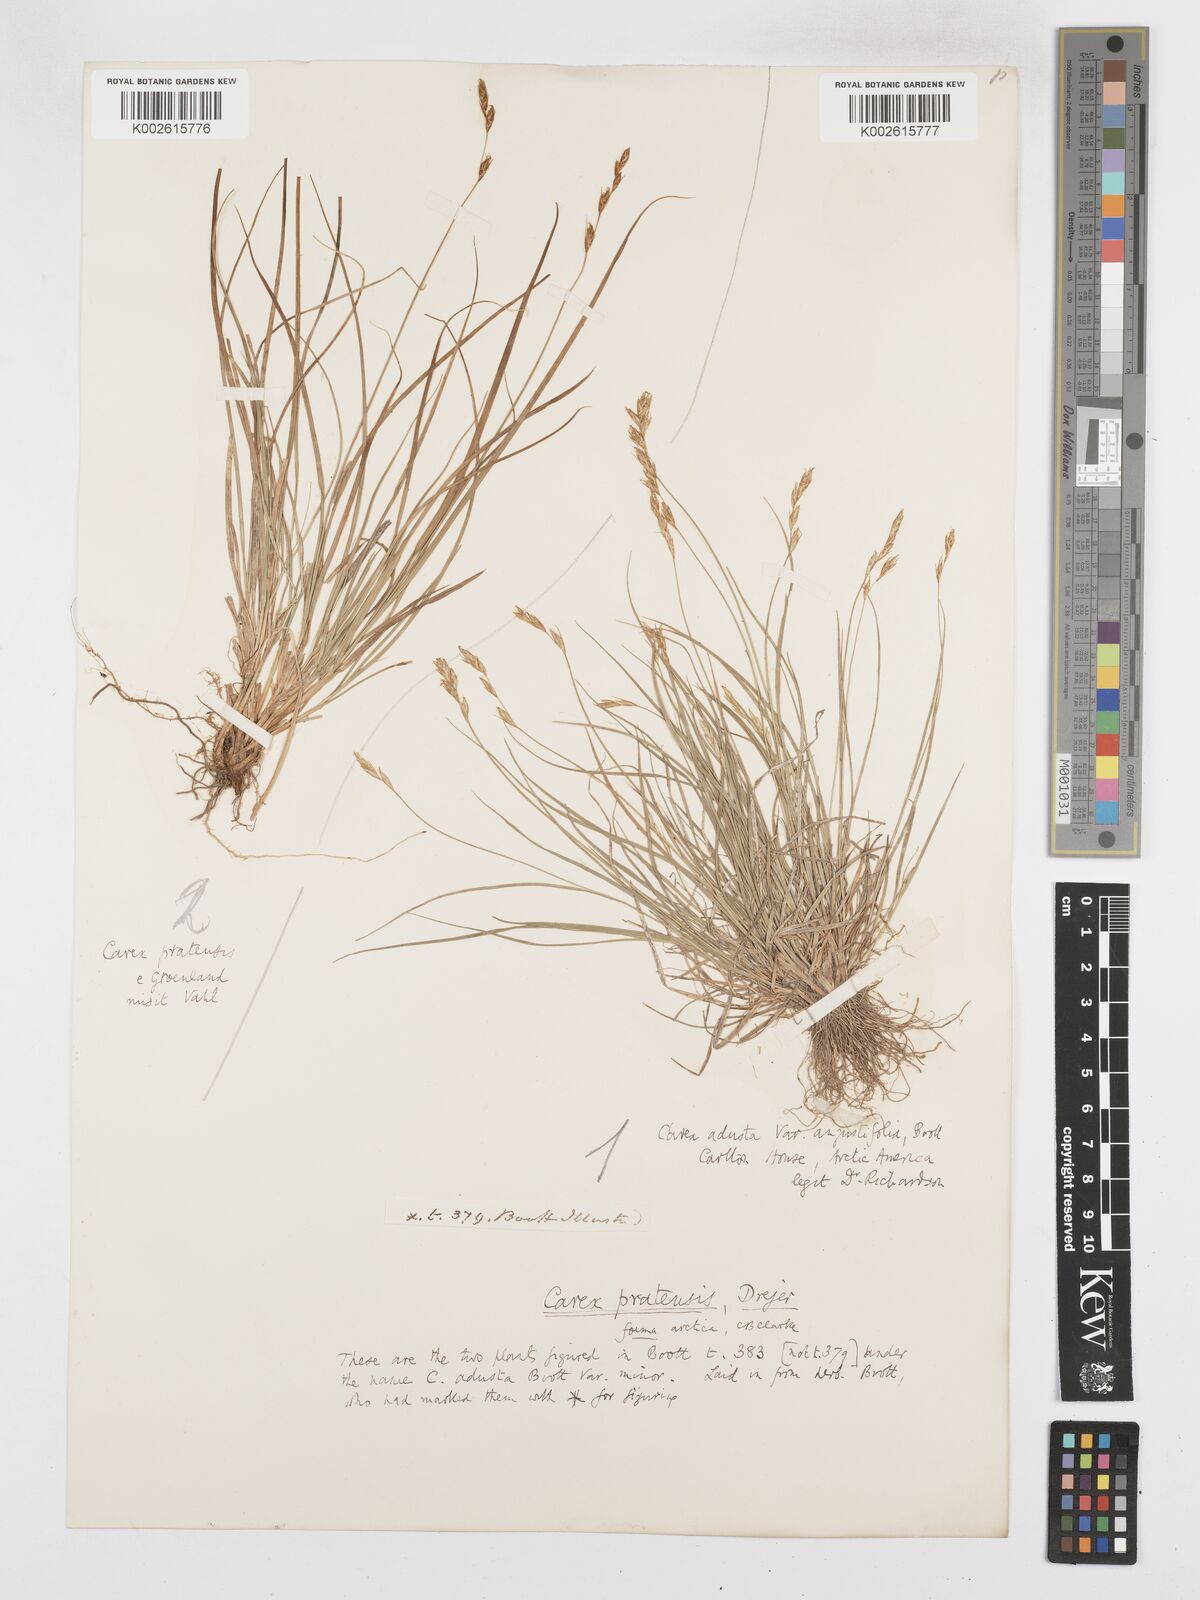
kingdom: Plantae
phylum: Tracheophyta
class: Liliopsida
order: Poales
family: Cyperaceae
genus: Carex
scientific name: Carex praticola
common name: Large-fruited oval sedge
